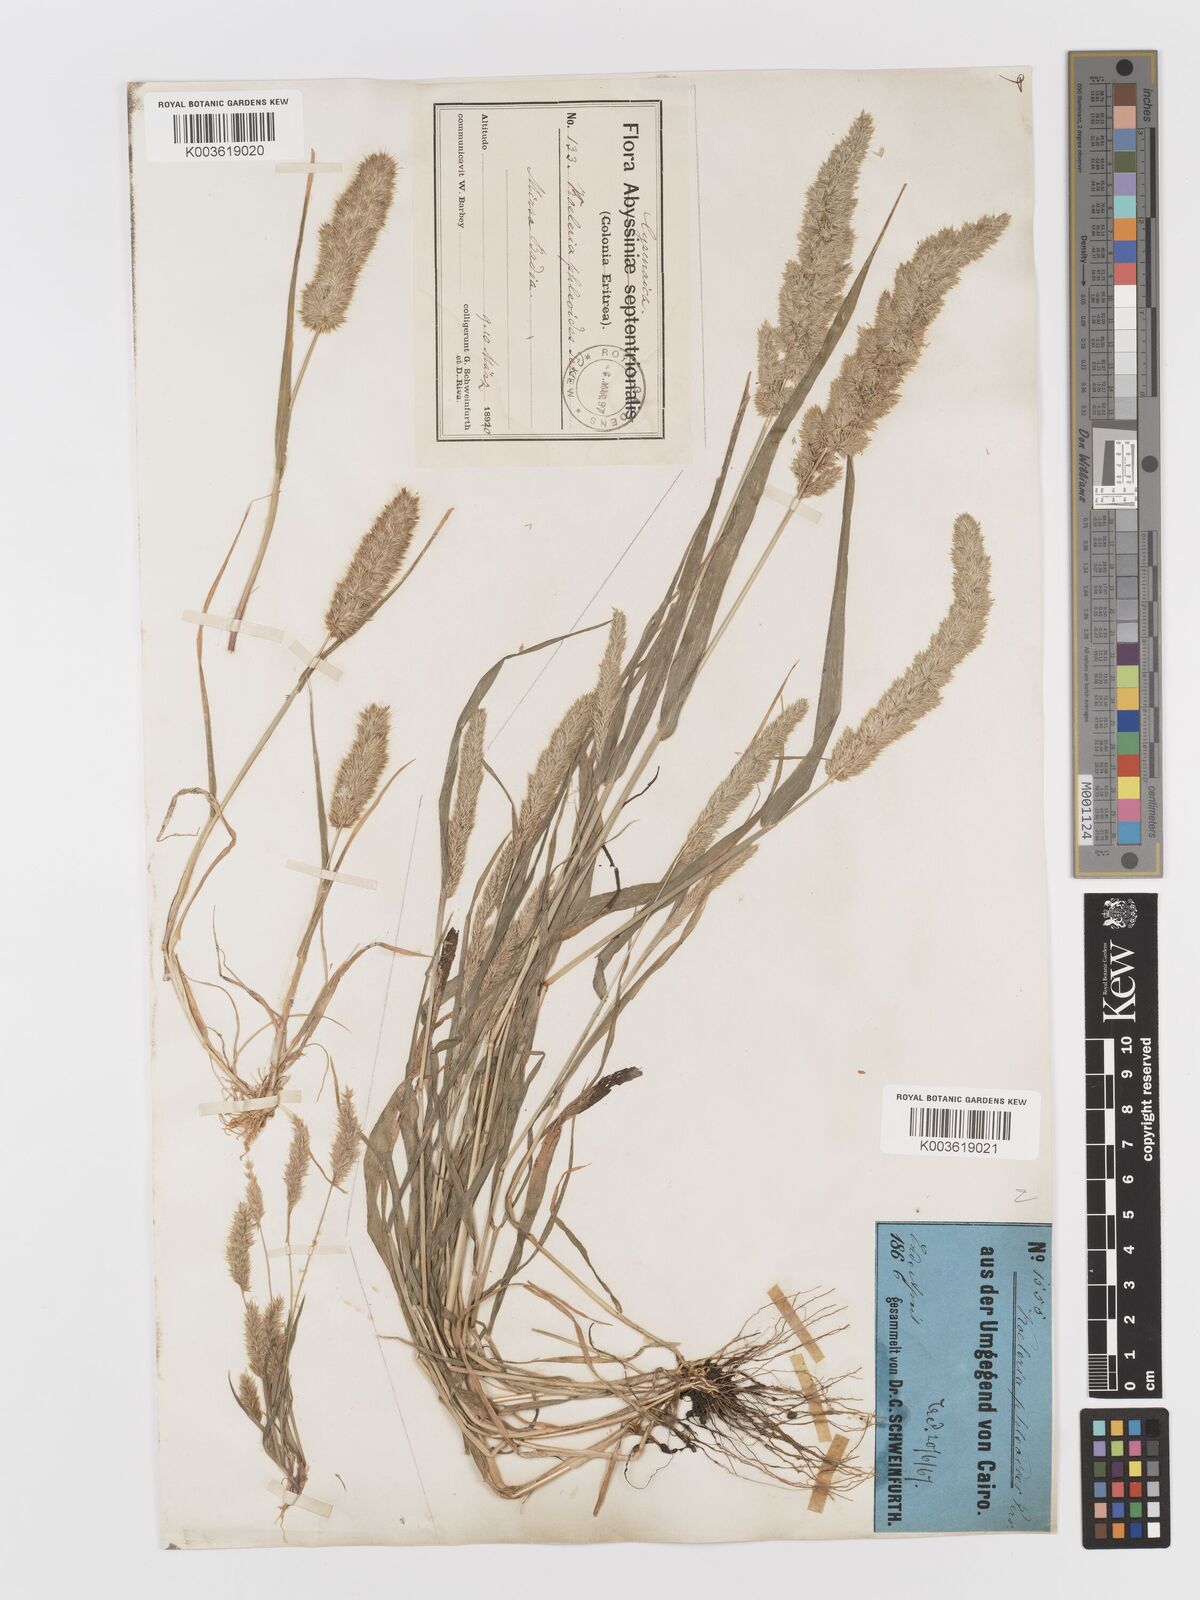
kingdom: Plantae
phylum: Tracheophyta
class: Liliopsida
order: Poales
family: Poaceae
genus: Rostraria
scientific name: Rostraria cristata
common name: Mediterranean hair-grass
